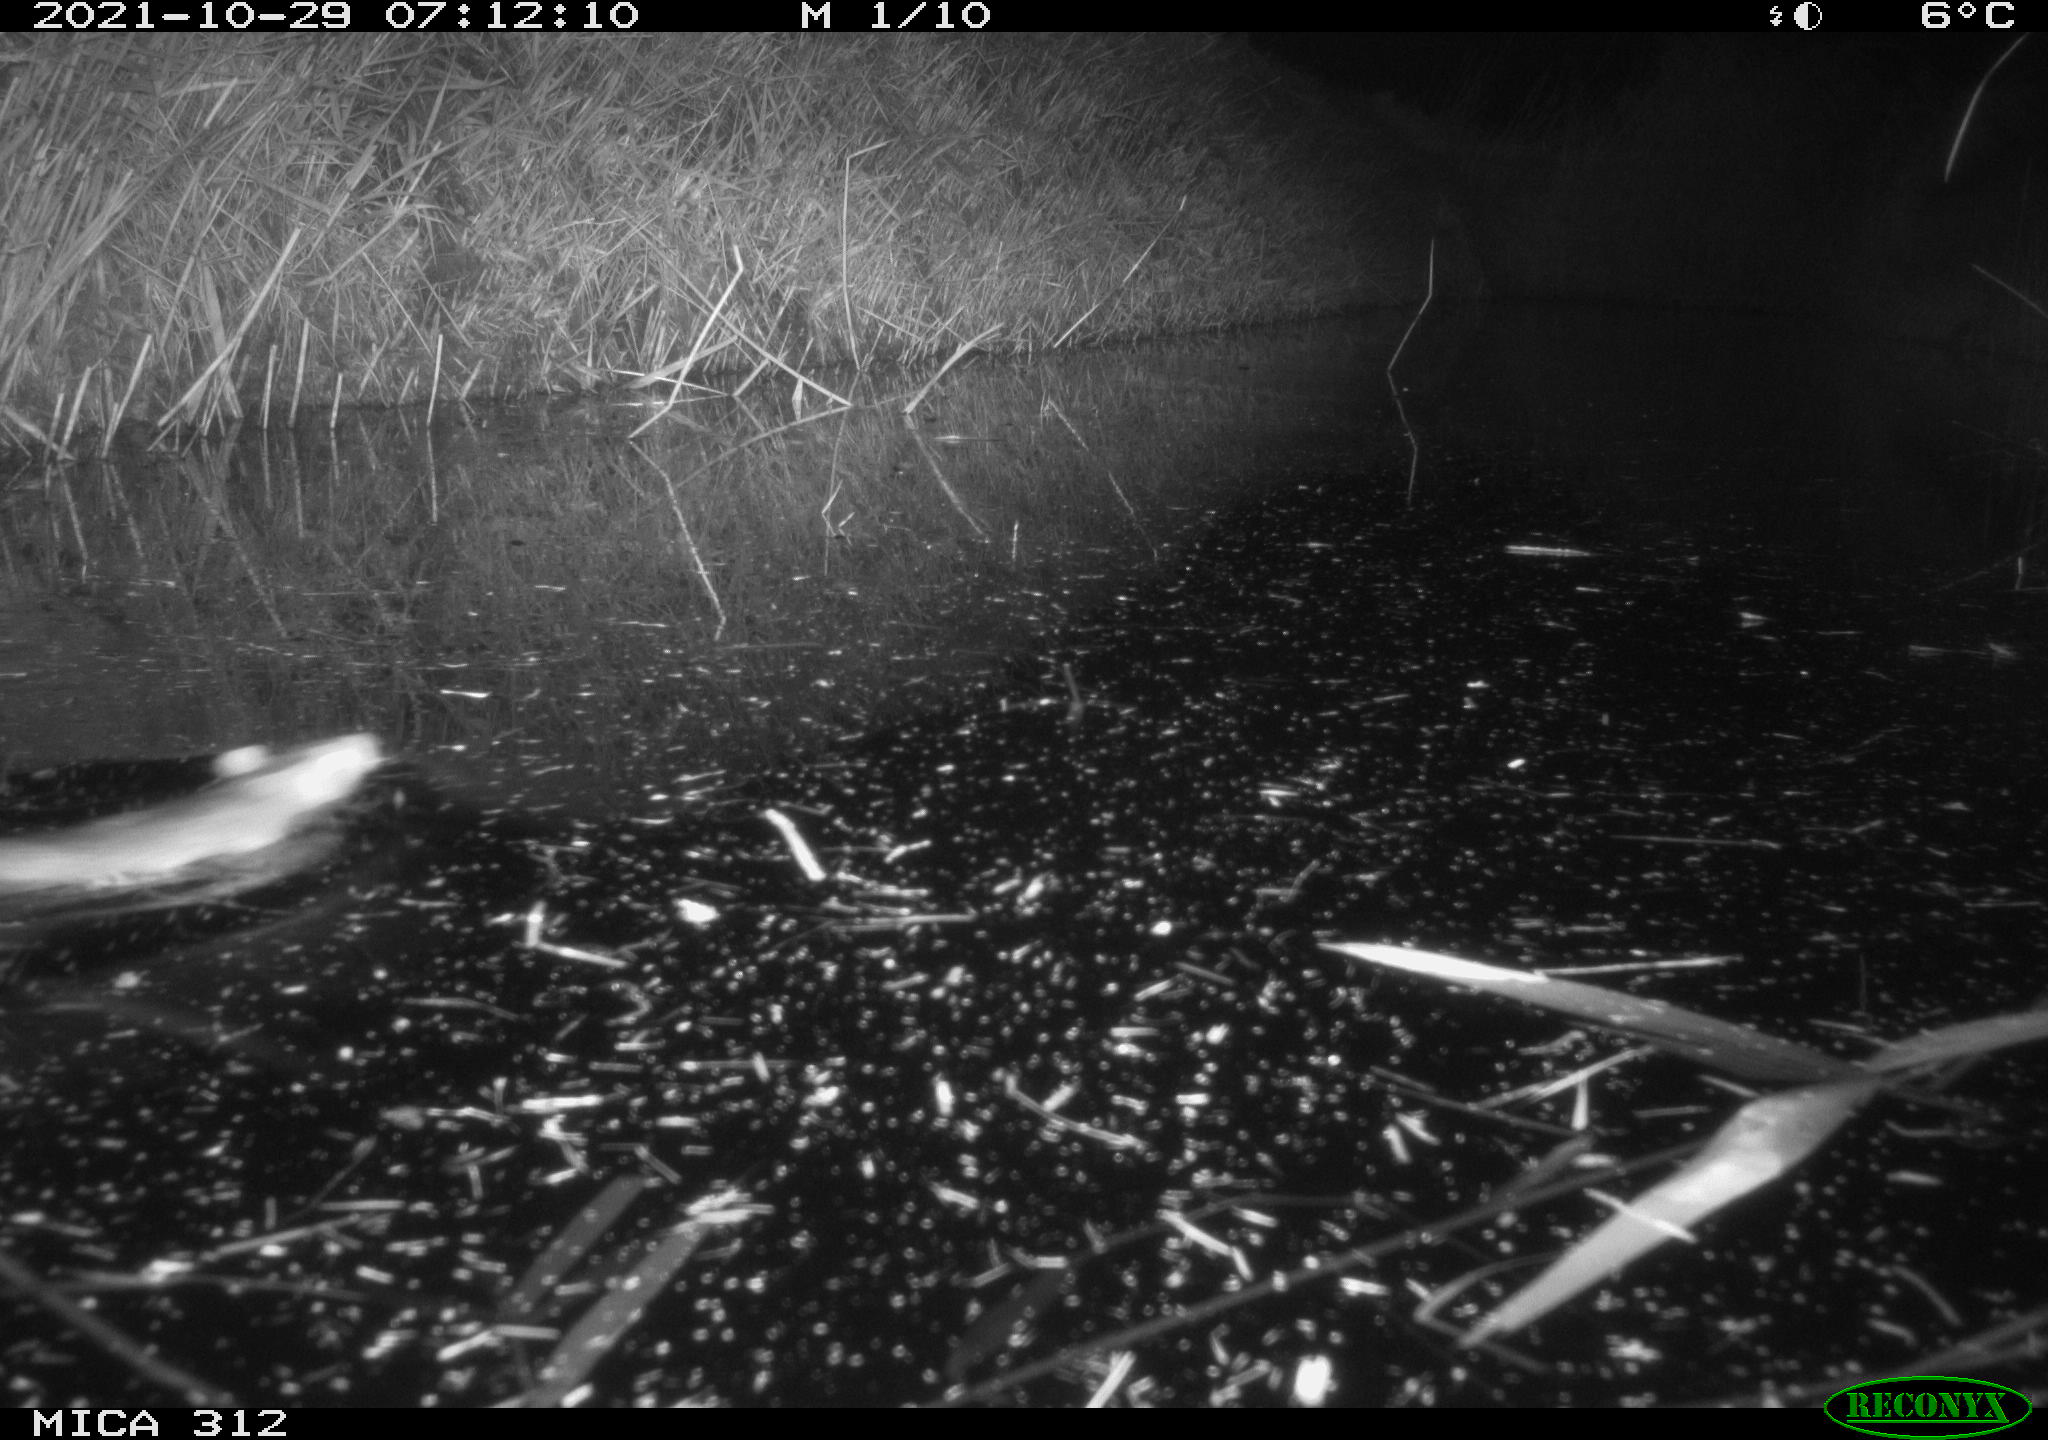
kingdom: Animalia
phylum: Chordata
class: Mammalia
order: Rodentia
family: Muridae
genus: Rattus
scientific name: Rattus norvegicus
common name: Brown rat
